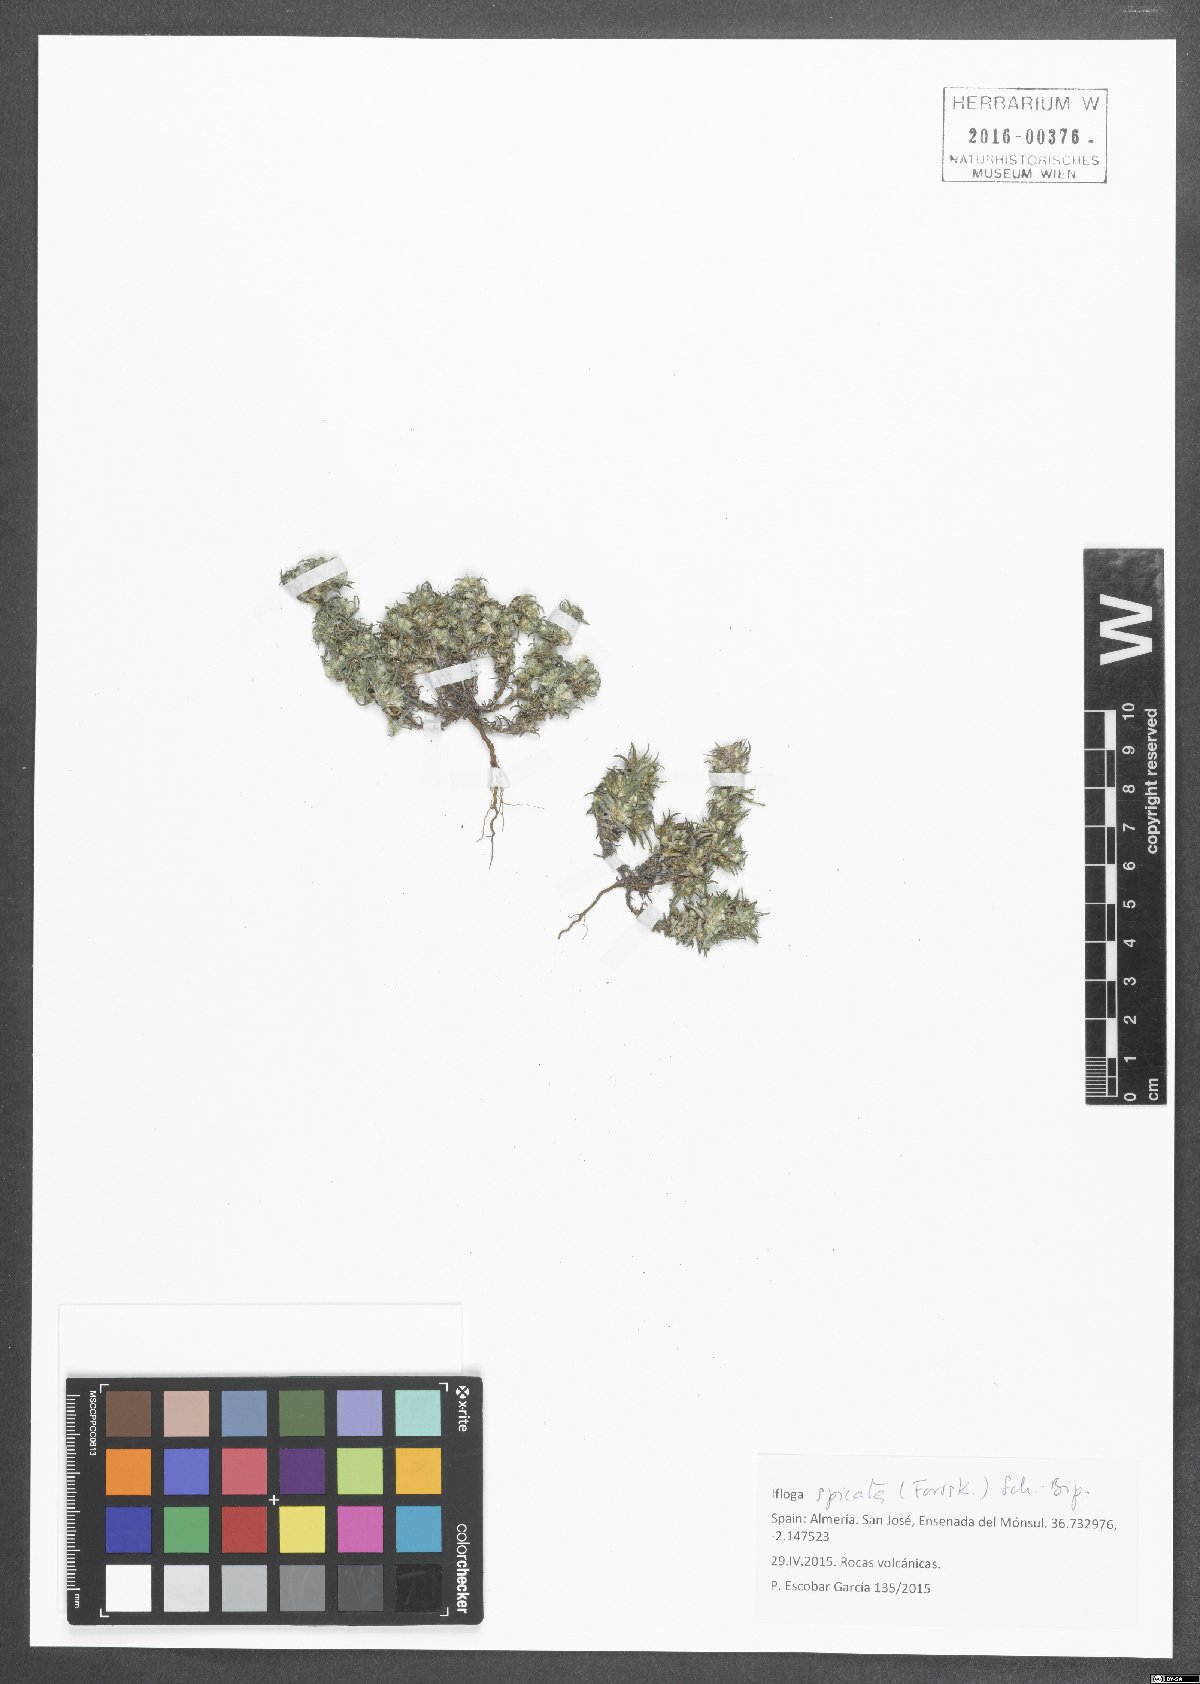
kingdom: Plantae
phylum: Tracheophyta
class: Magnoliopsida
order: Asterales
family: Asteraceae
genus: Ifloga
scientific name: Ifloga spicata
